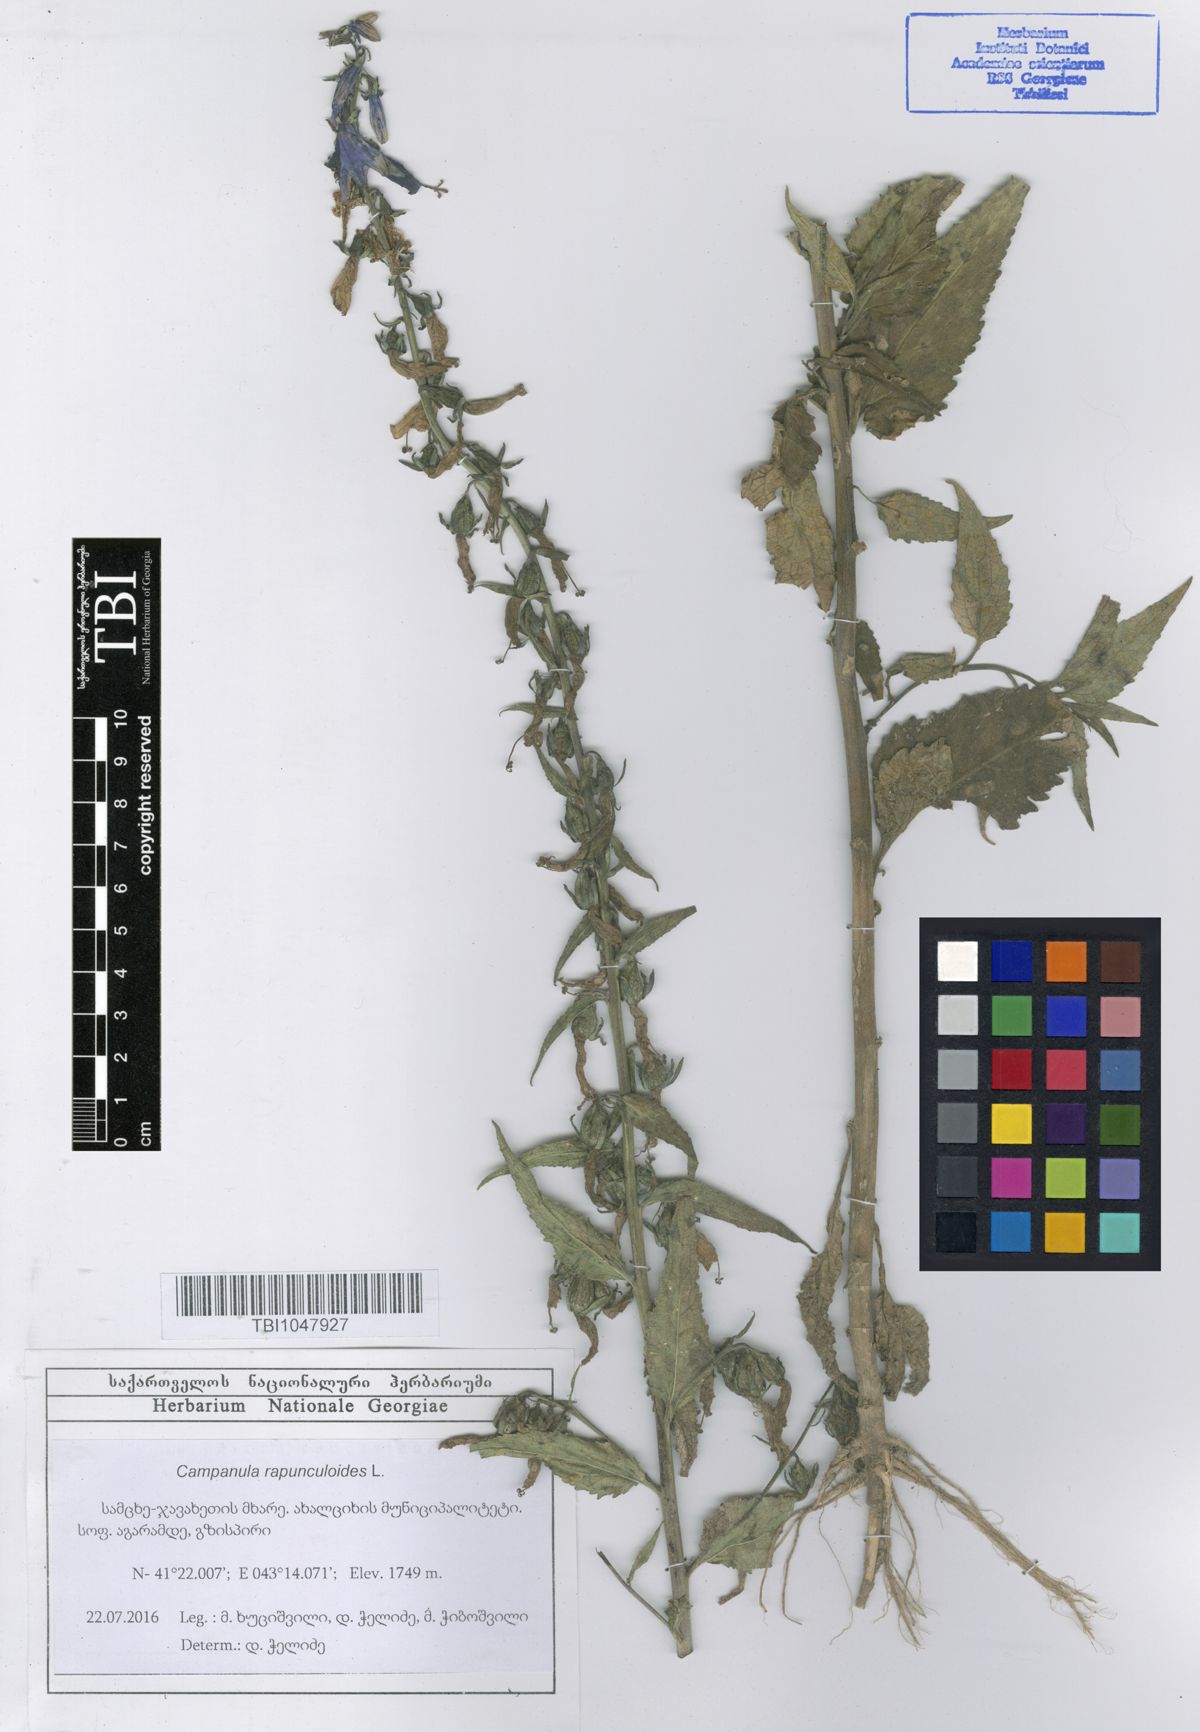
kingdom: Plantae
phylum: Tracheophyta
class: Magnoliopsida
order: Asterales
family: Campanulaceae
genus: Campanula
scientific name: Campanula rapunculoides
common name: Creeping bellflower
